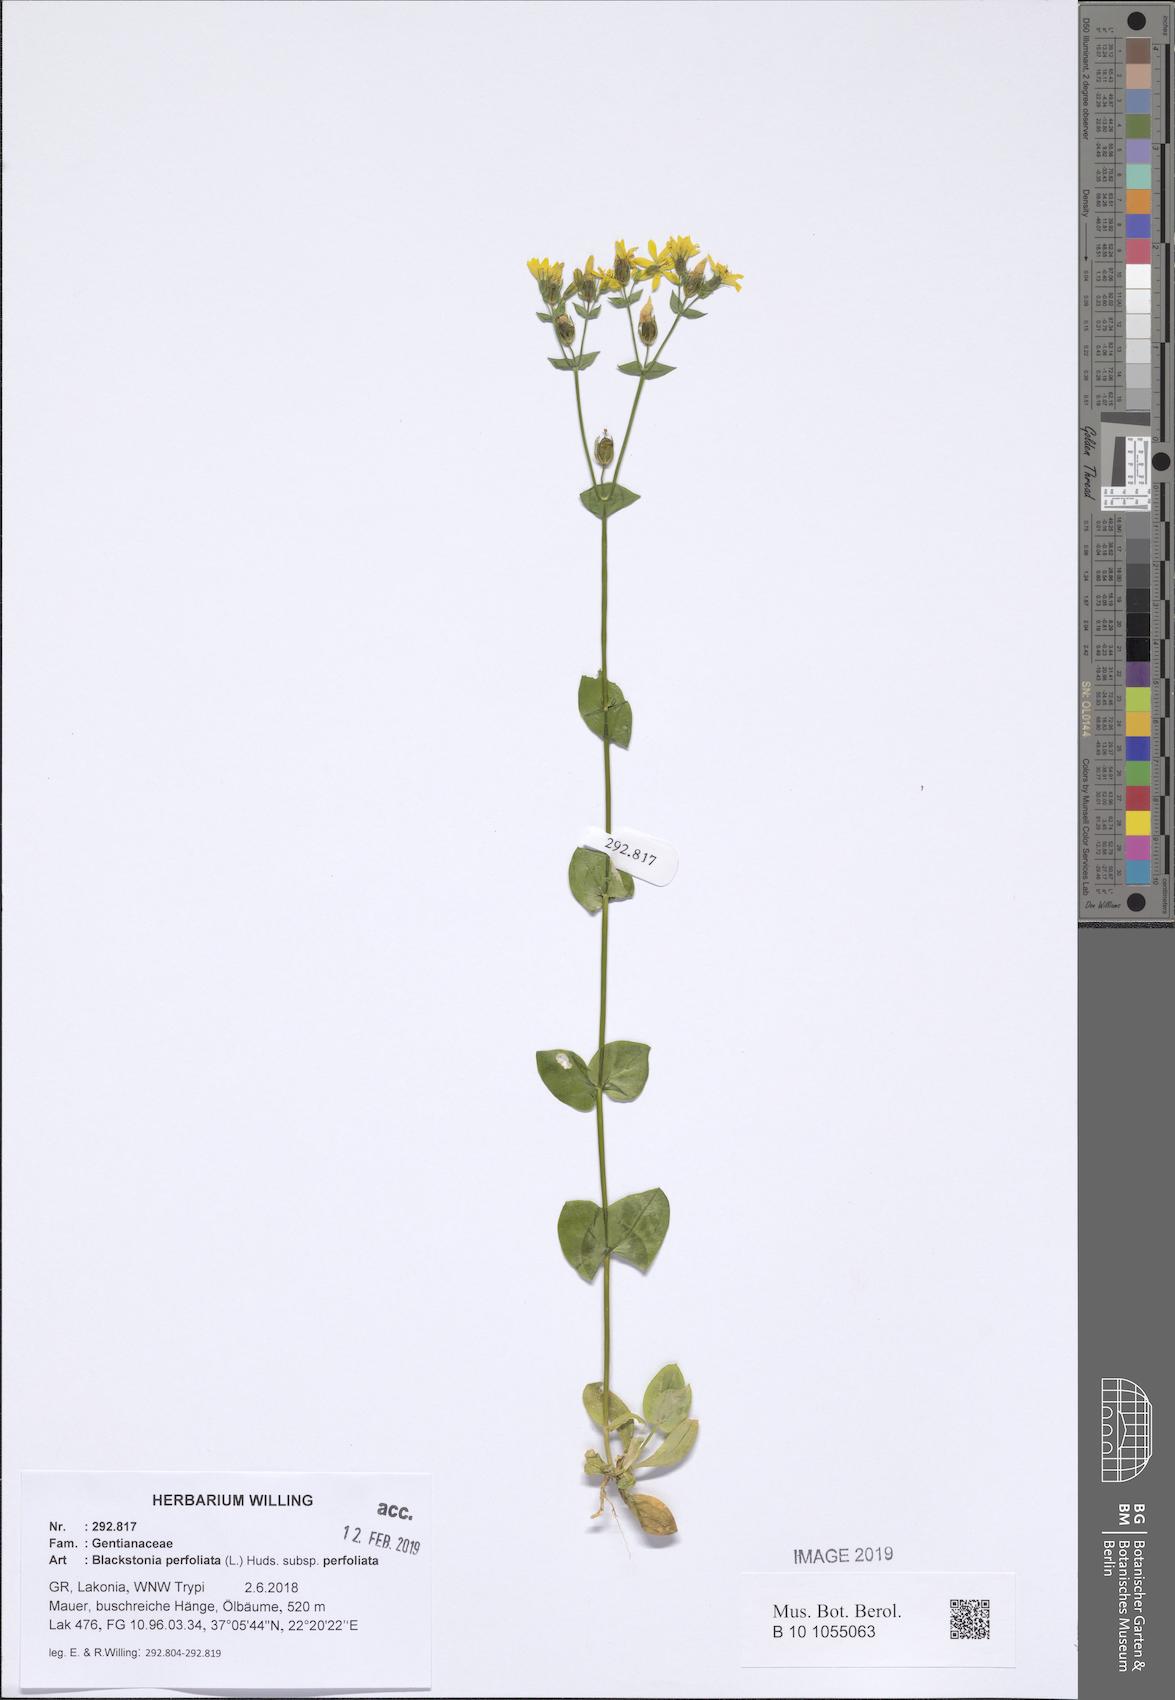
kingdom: Plantae
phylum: Tracheophyta
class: Magnoliopsida
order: Gentianales
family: Gentianaceae
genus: Blackstonia
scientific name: Blackstonia perfoliata
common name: Yellow-wort
